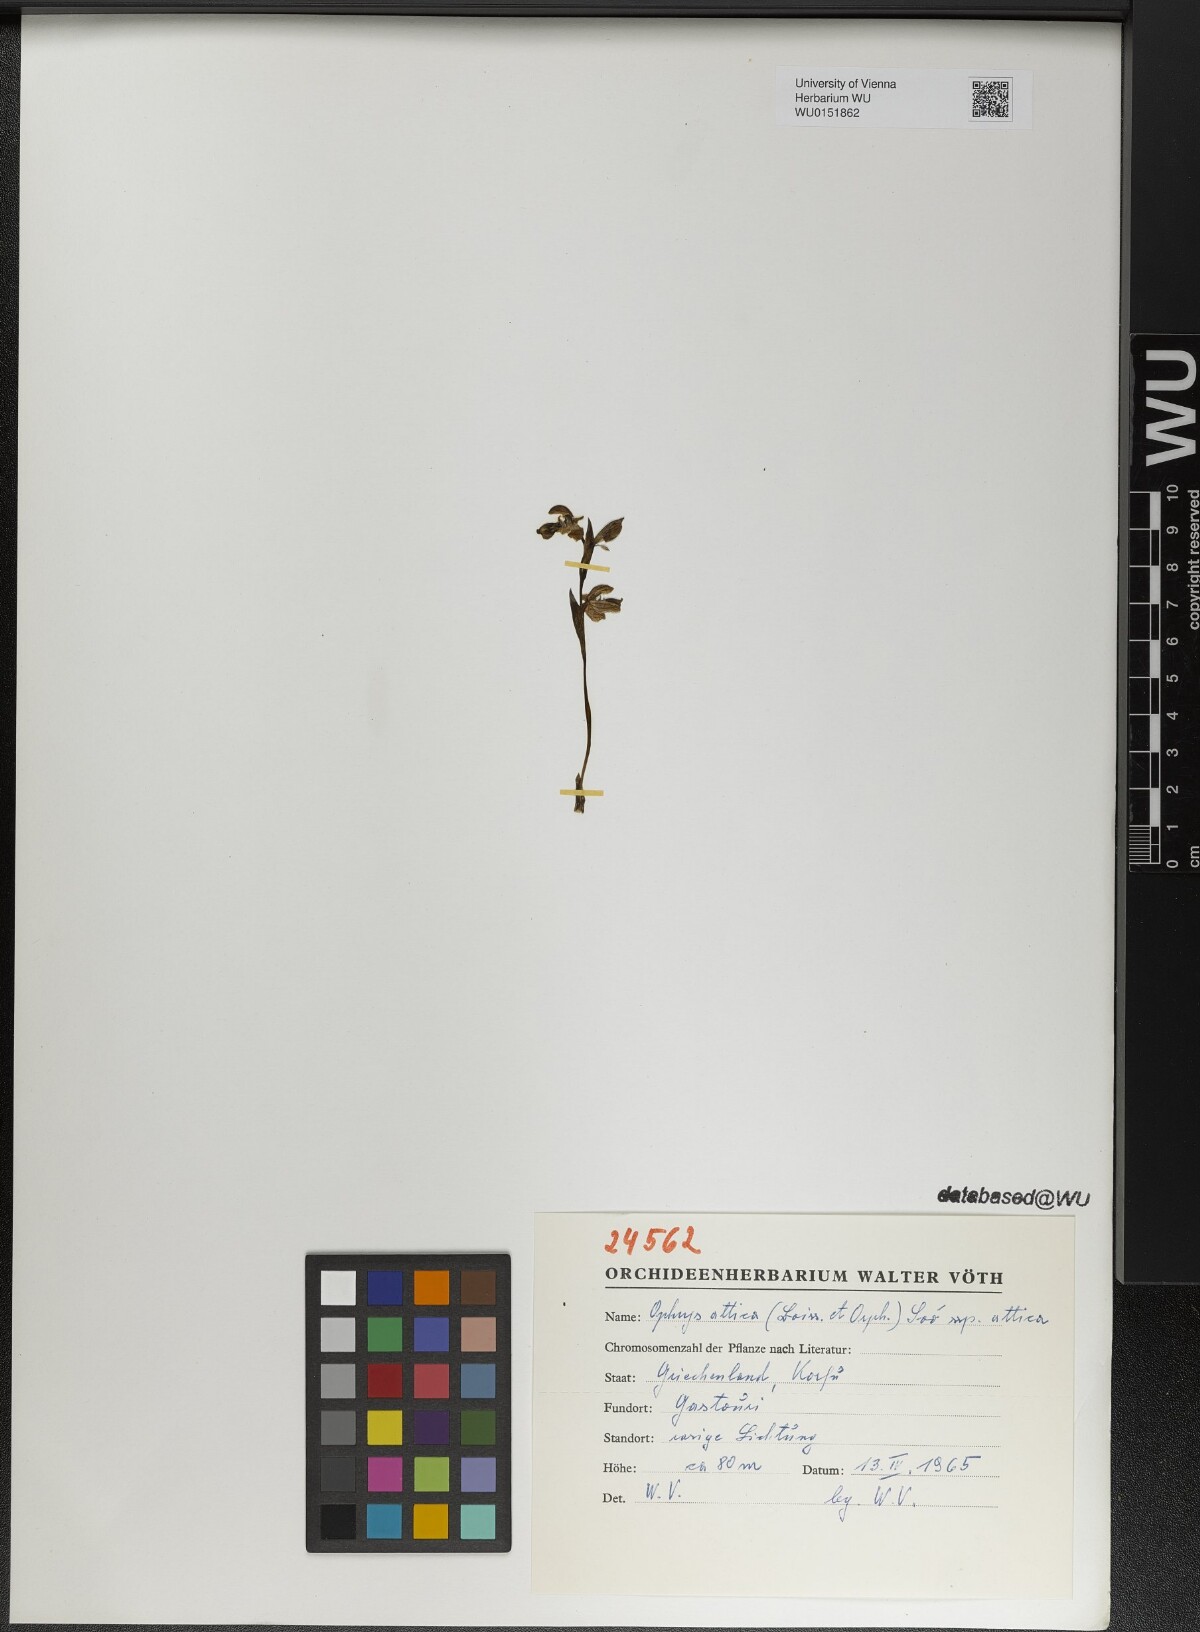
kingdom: Plantae
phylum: Tracheophyta
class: Liliopsida
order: Asparagales
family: Orchidaceae
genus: Ophrys
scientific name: Ophrys umbilicata
